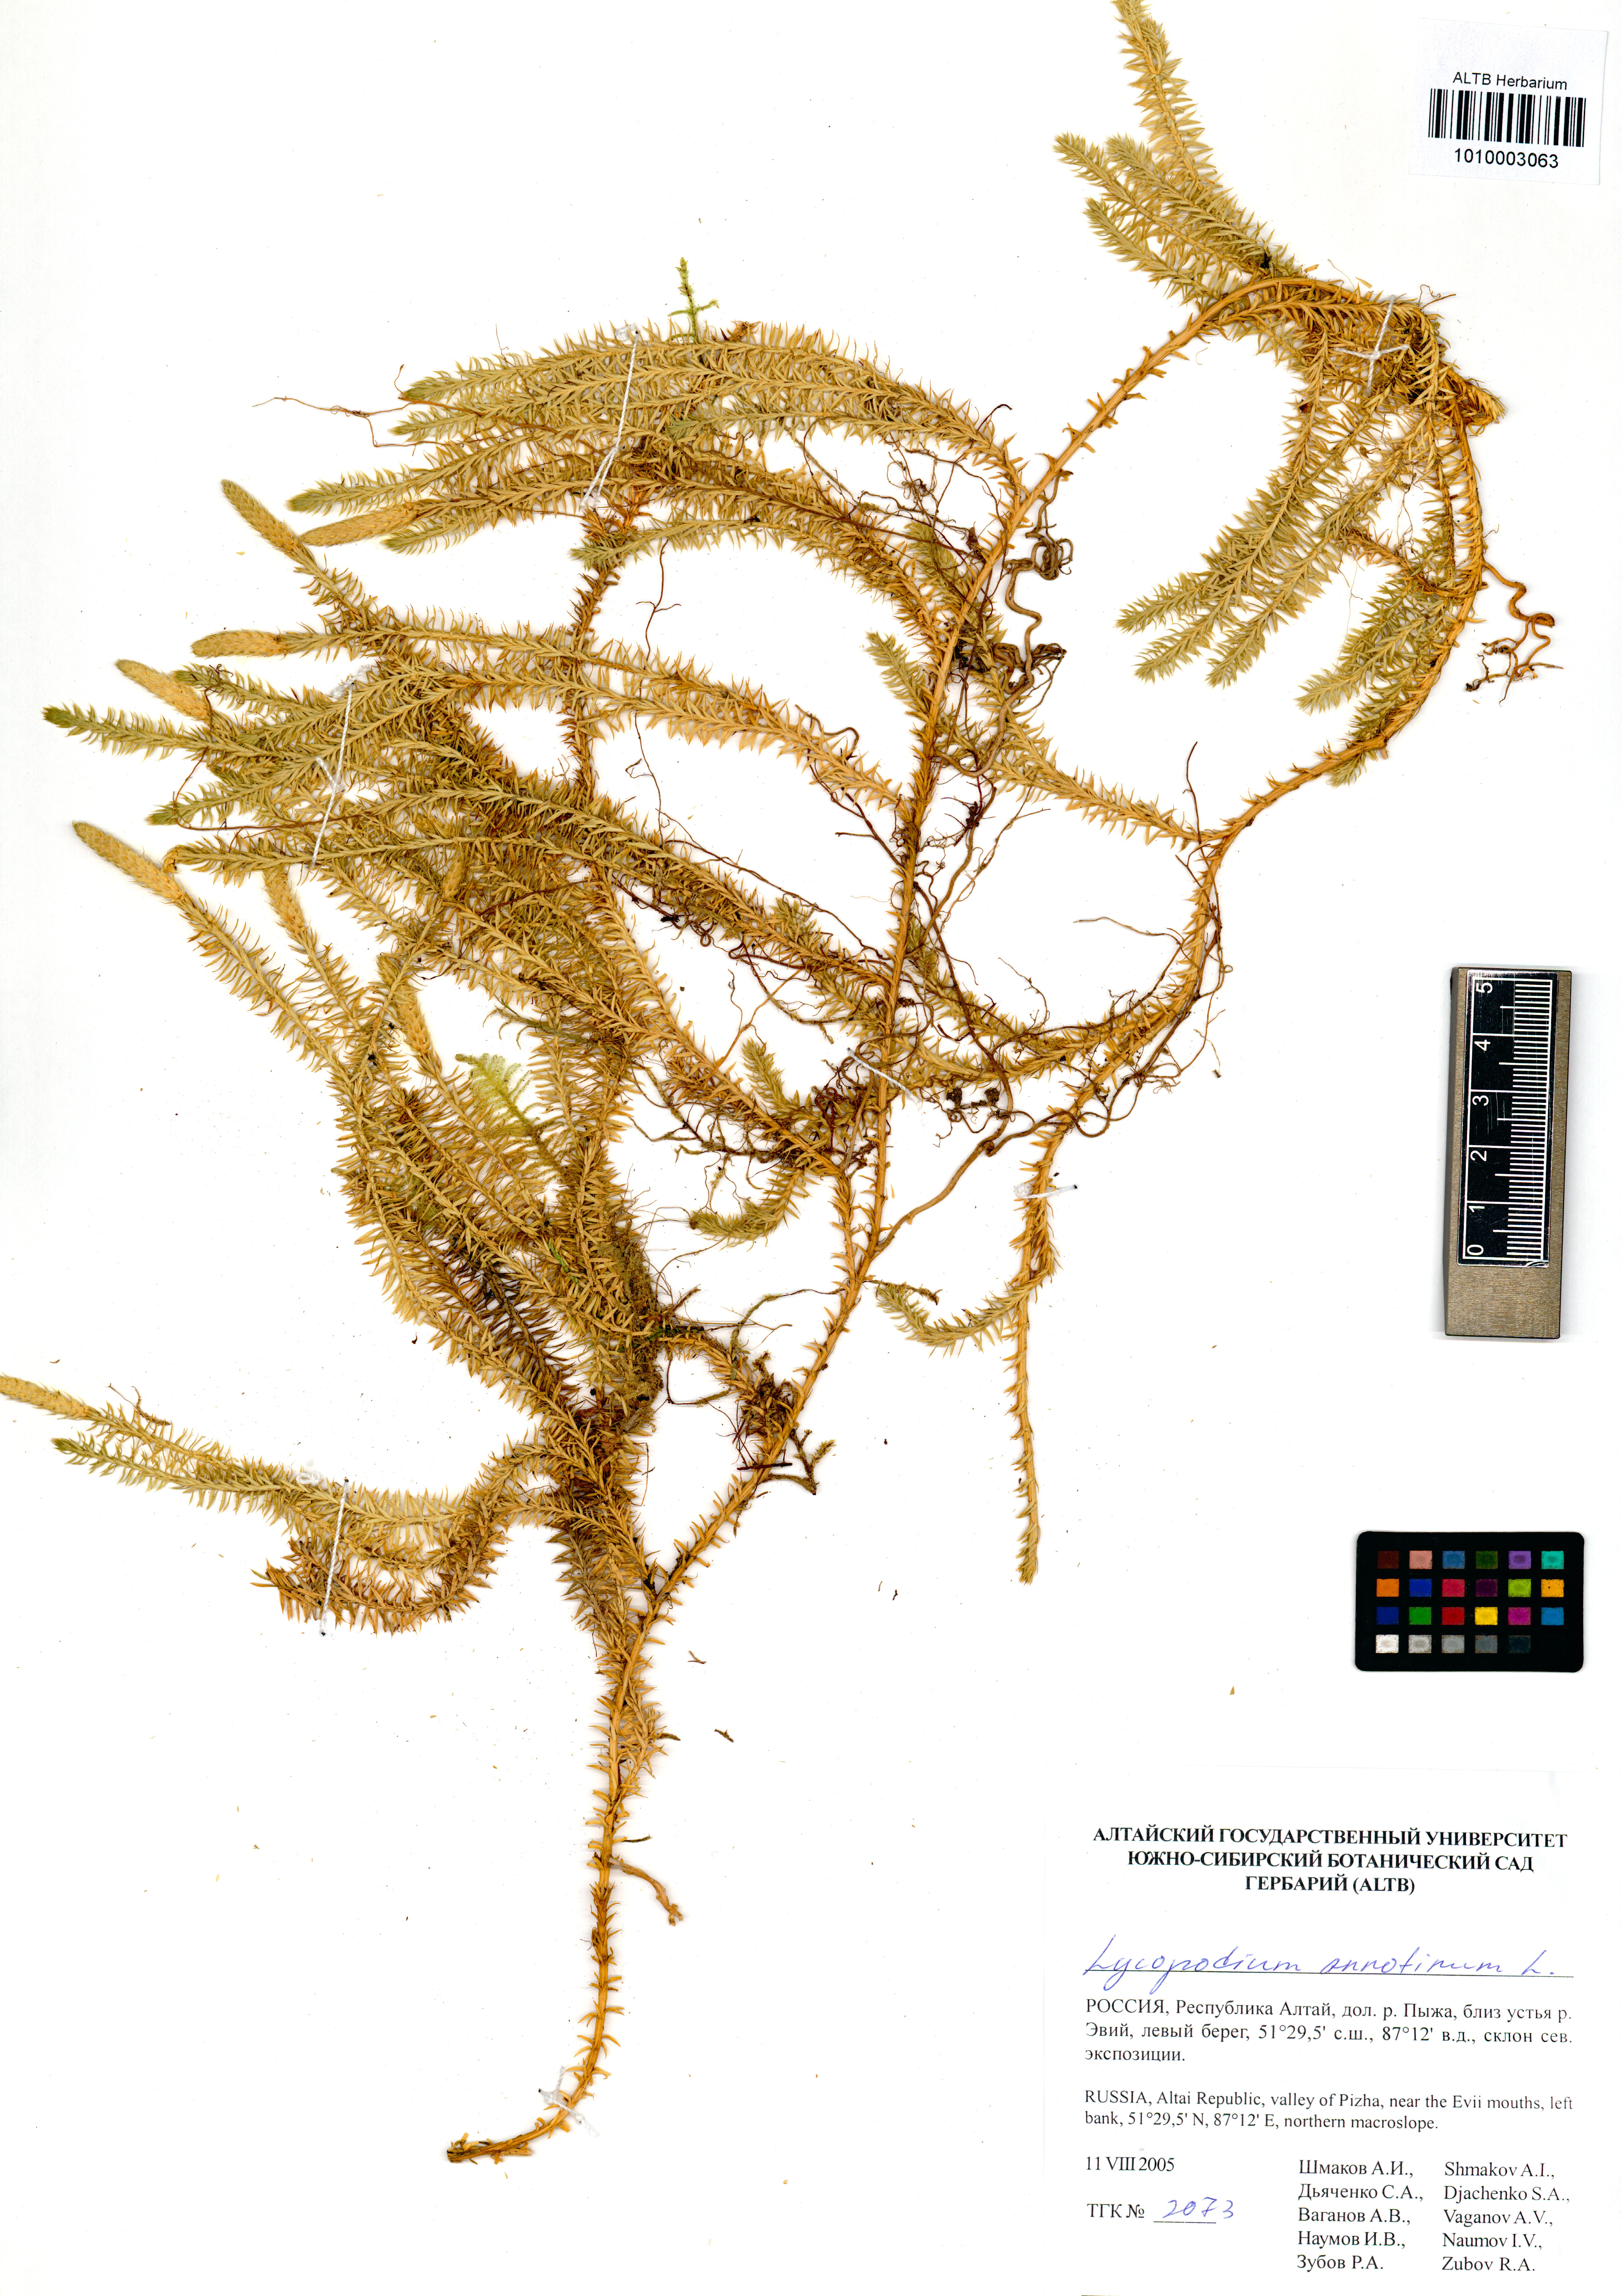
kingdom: Plantae
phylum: Tracheophyta
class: Lycopodiopsida
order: Lycopodiales
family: Lycopodiaceae
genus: Spinulum
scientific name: Spinulum annotinum
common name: Interrupted club-moss
